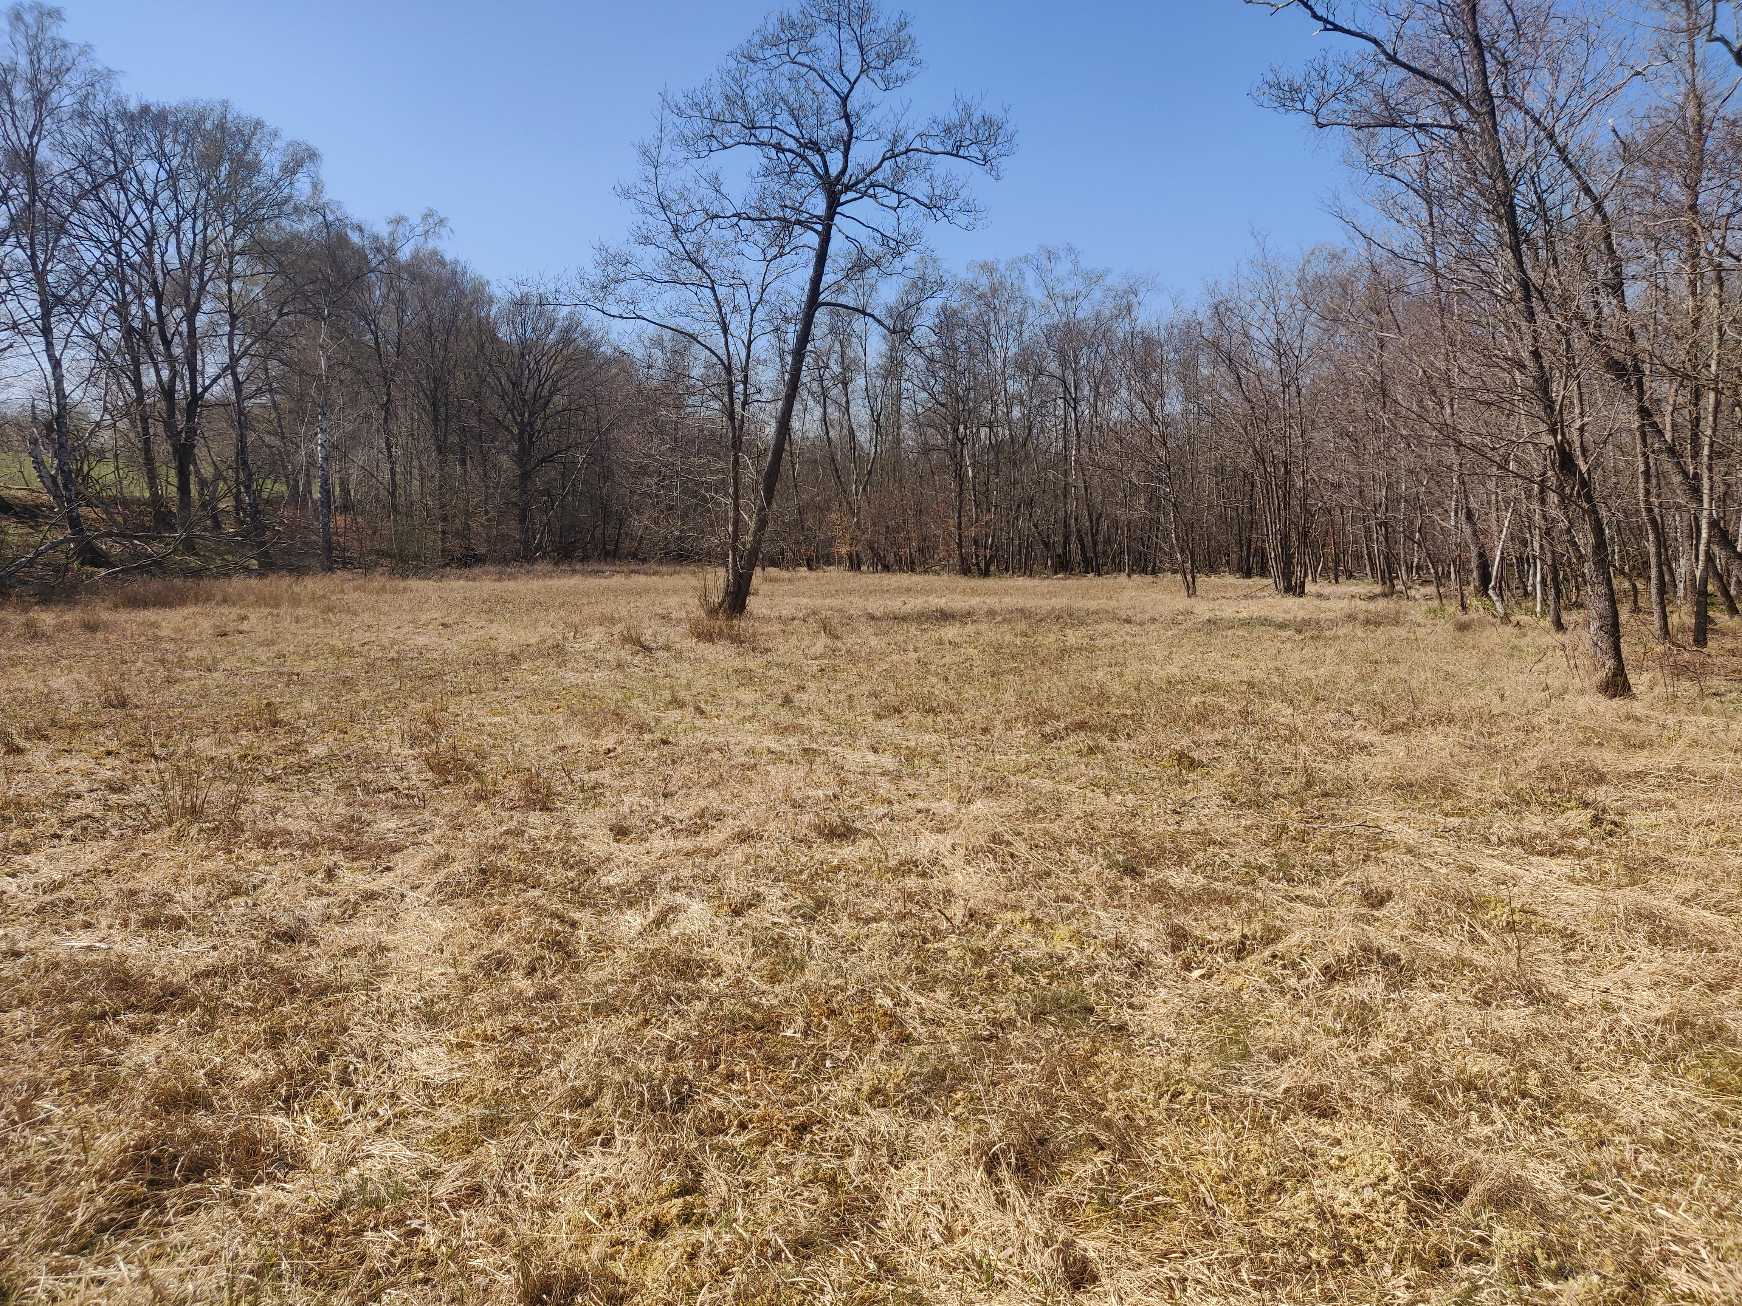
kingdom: Animalia
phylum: Arthropoda
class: Insecta
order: Lepidoptera
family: Lycaenidae
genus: Callophrys
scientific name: Callophrys rubi
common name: Grøn busksommerfugl
